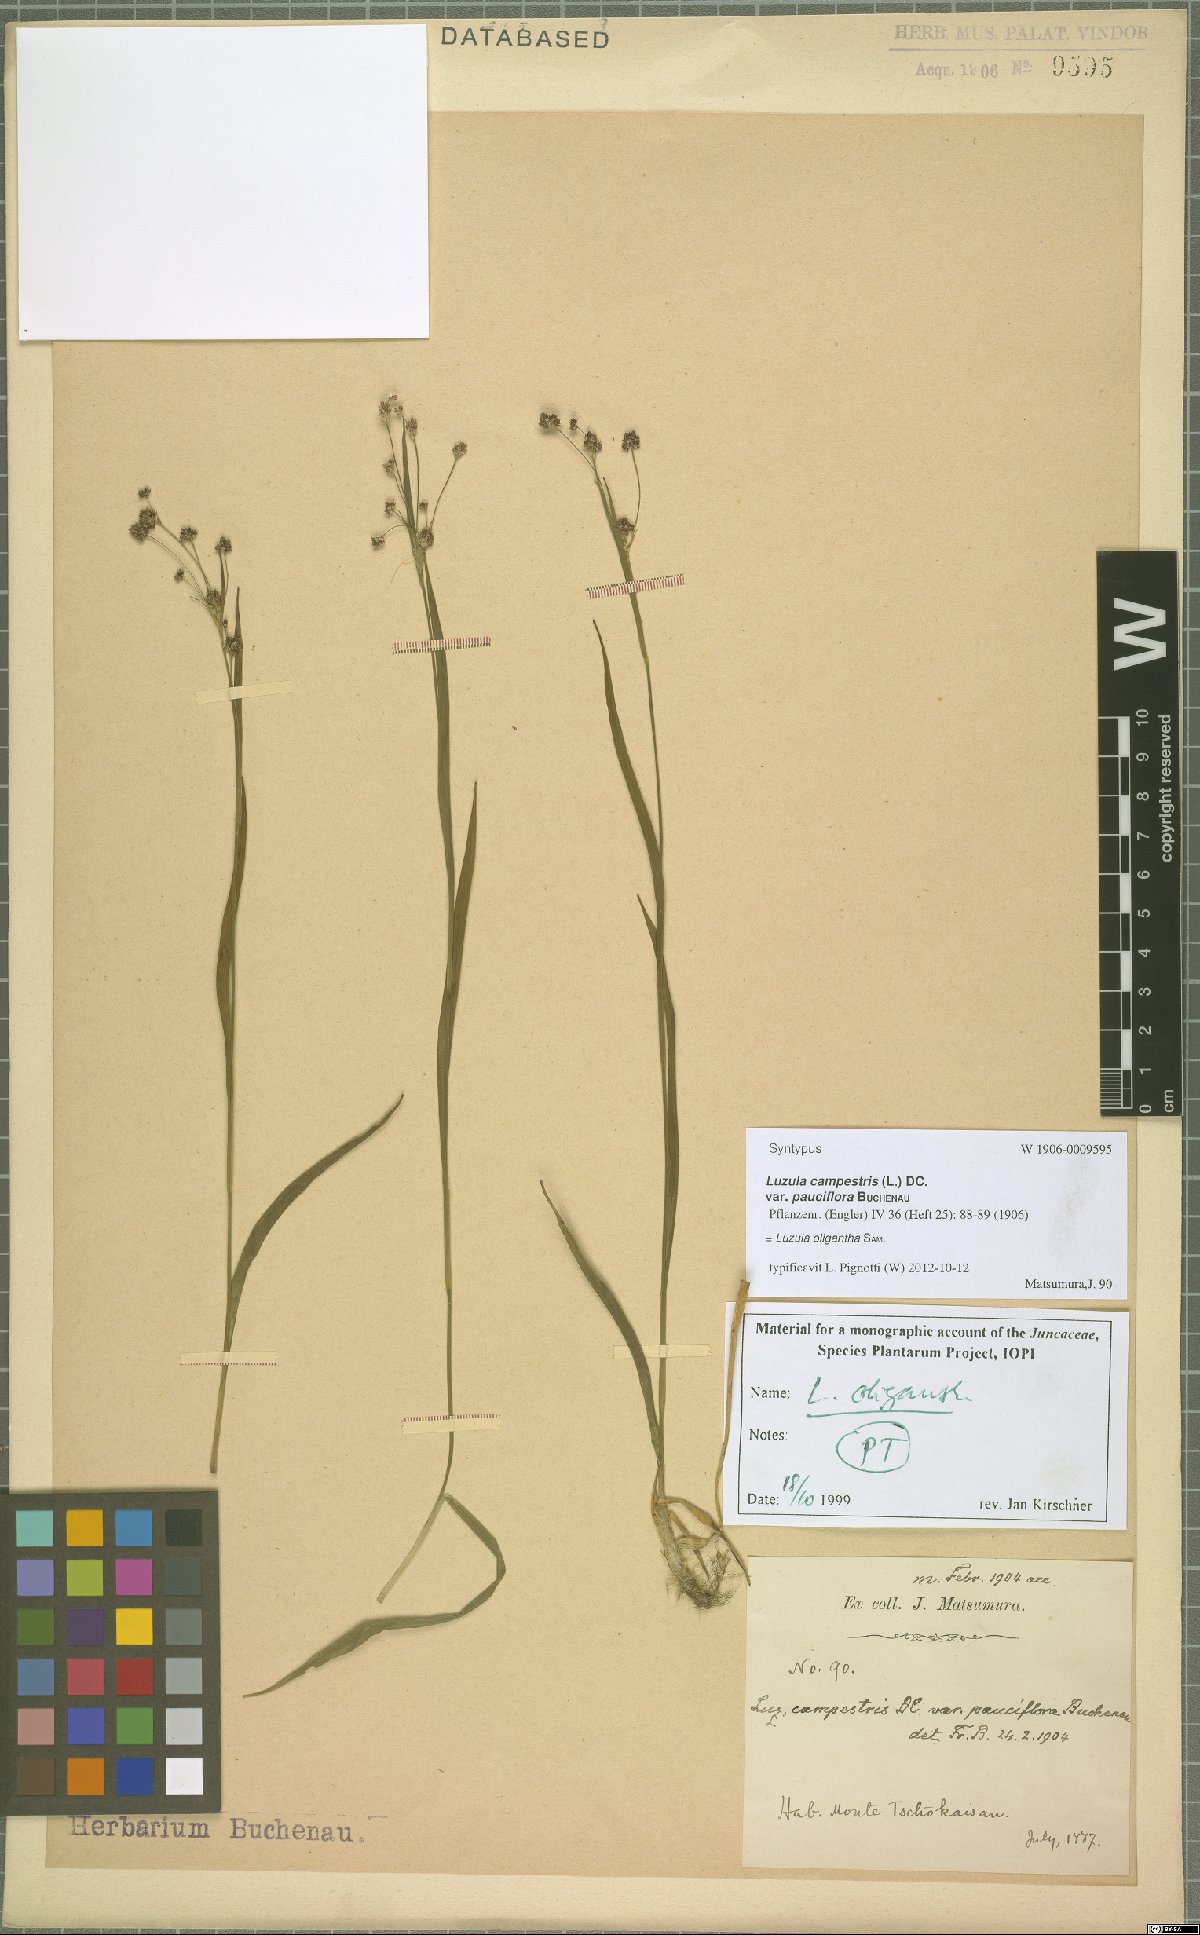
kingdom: Plantae
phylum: Tracheophyta
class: Liliopsida
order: Poales
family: Juncaceae
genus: Luzula
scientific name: Luzula oligantha
